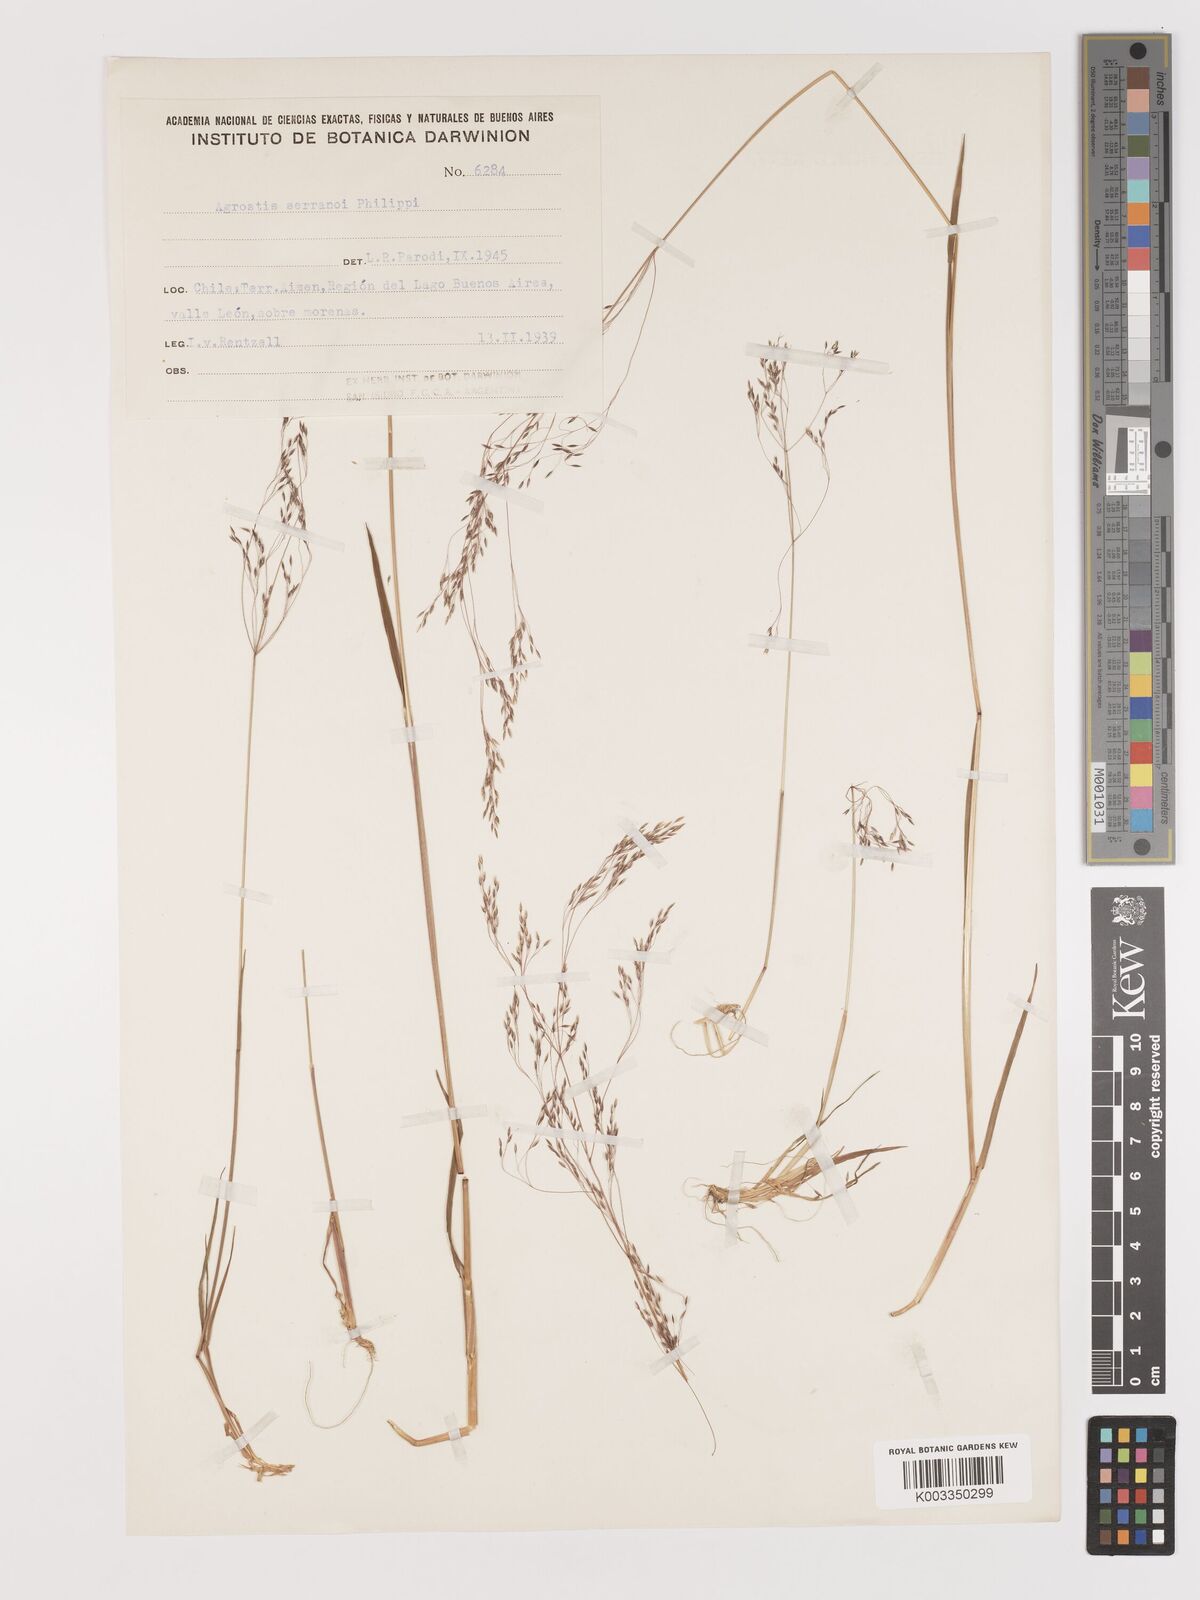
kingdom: Plantae
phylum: Tracheophyta
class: Liliopsida
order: Poales
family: Poaceae
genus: Agrostis
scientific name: Agrostis serranoi
